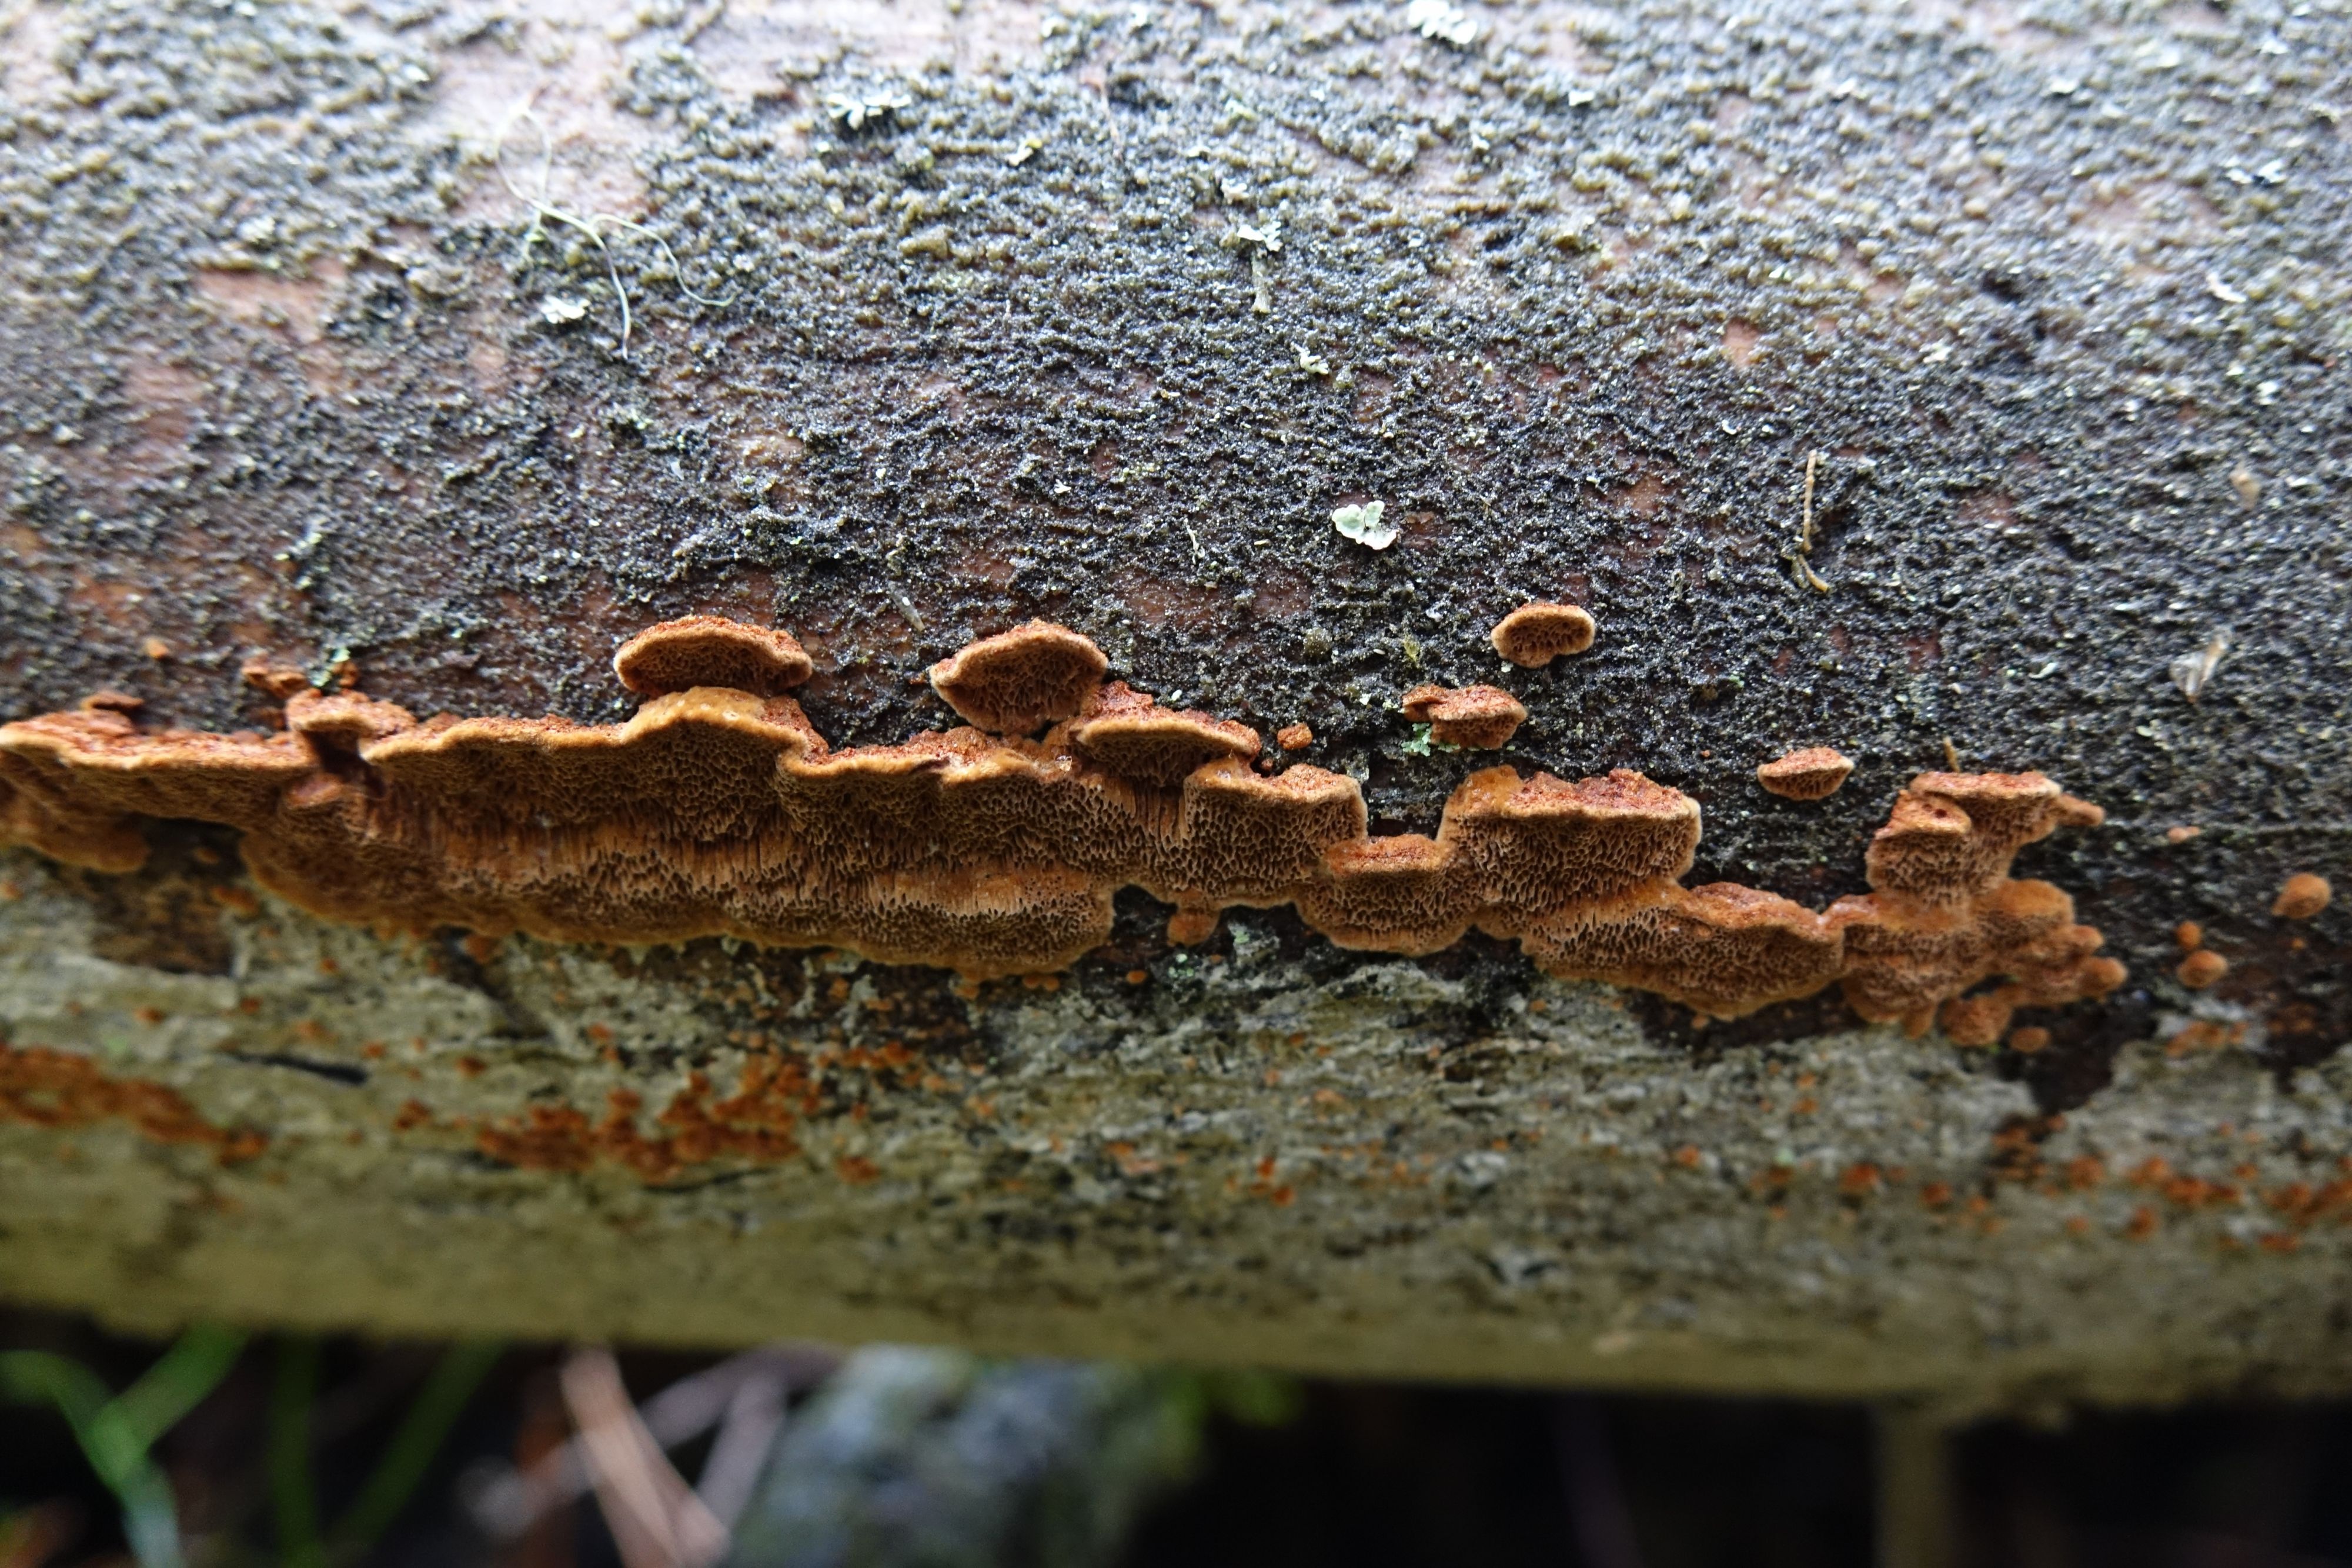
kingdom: Fungi
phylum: Basidiomycota
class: Agaricomycetes
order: Hymenochaetales
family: Hymenochaetaceae
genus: Phellinus
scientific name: Phellinus viticola
